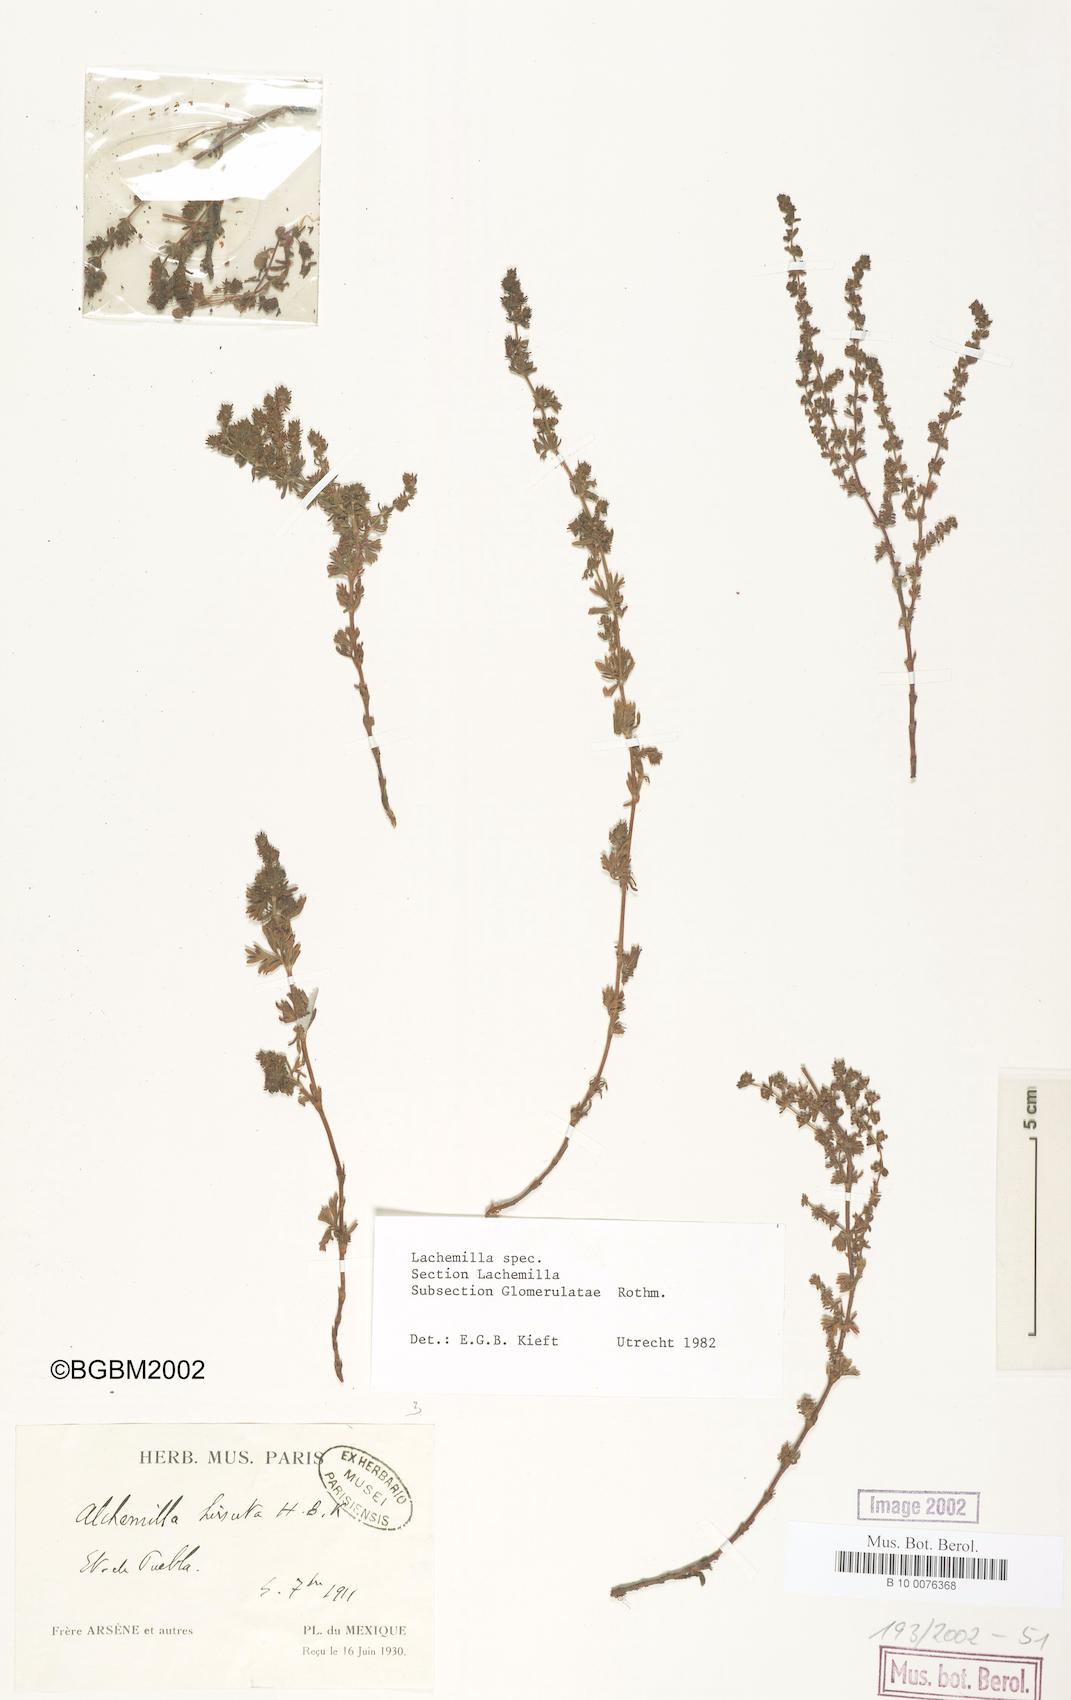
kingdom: Plantae
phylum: Tracheophyta
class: Magnoliopsida
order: Rosales
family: Rosaceae
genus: Lachemilla
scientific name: Lachemilla hirta
